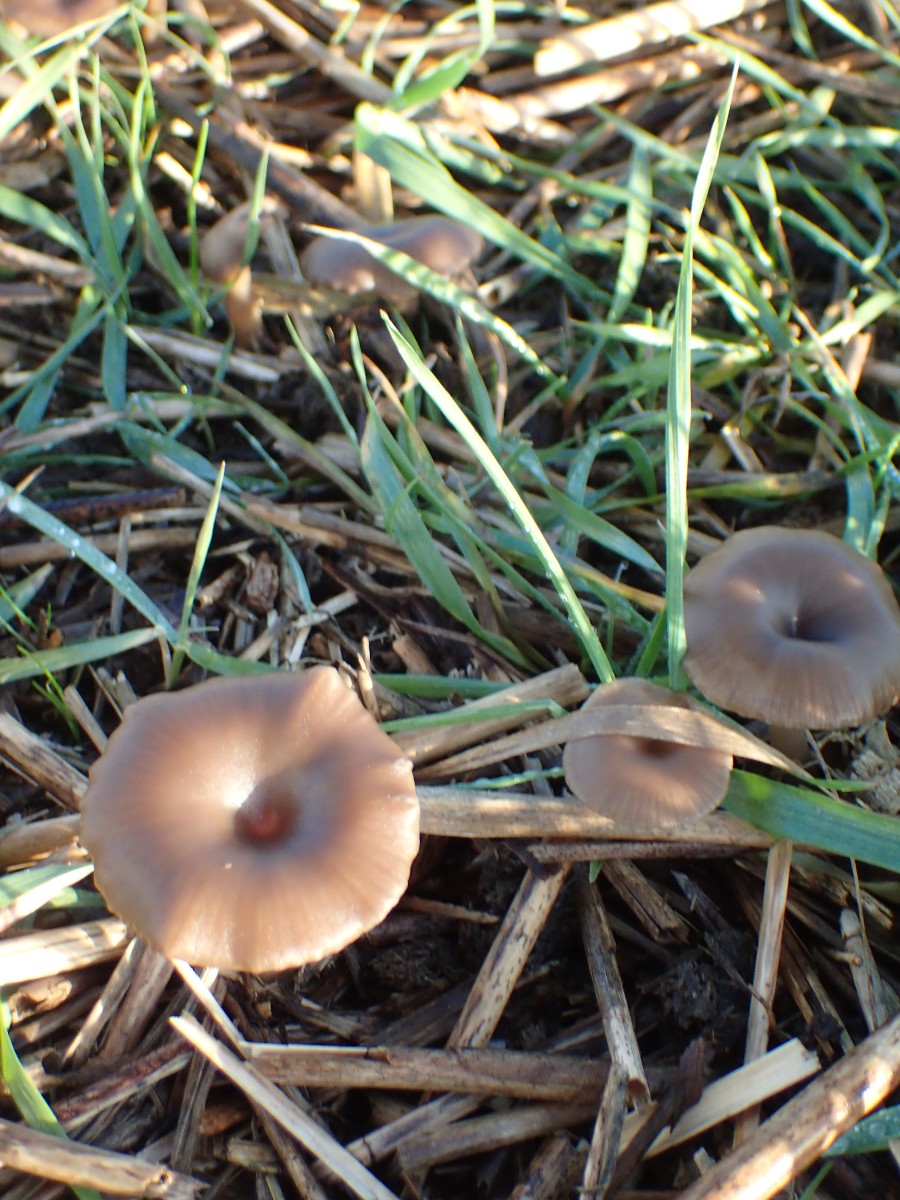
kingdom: Fungi
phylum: Basidiomycota
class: Agaricomycetes
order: Agaricales
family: Tricholomataceae
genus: Clitocybe
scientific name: Clitocybe
